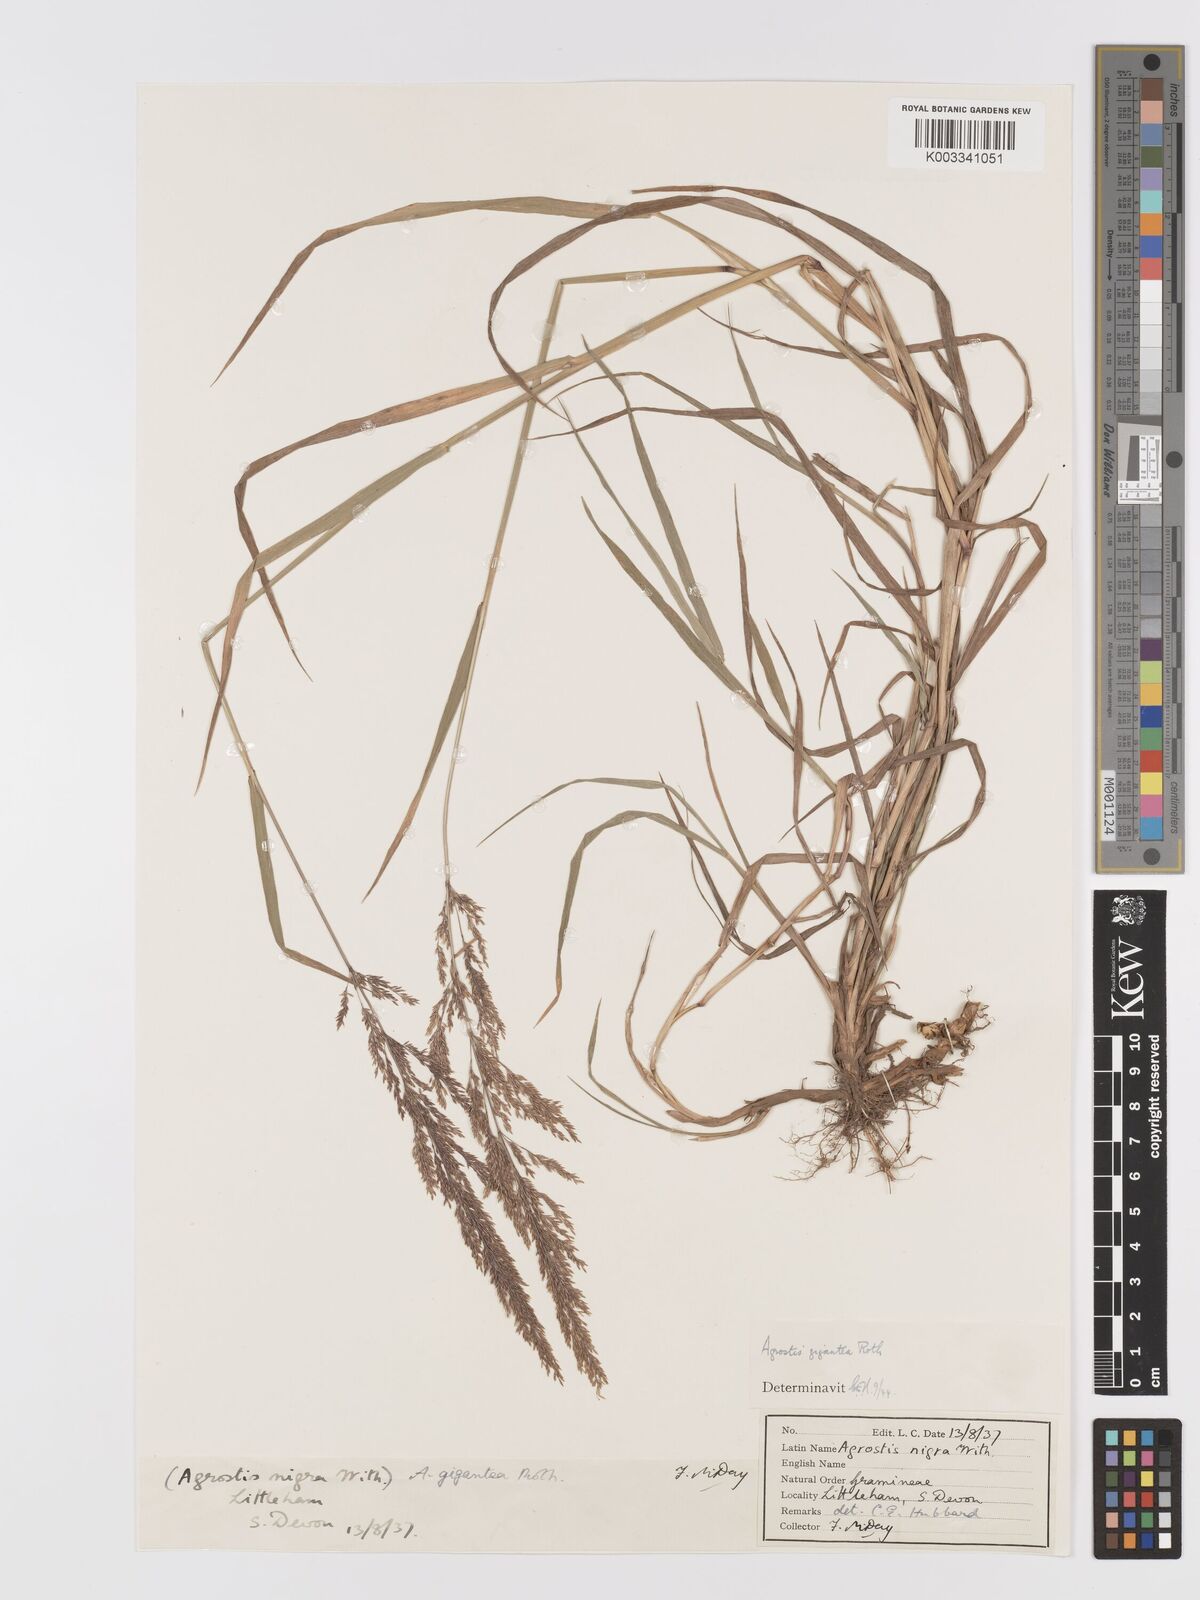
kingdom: Plantae
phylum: Tracheophyta
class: Liliopsida
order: Poales
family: Poaceae
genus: Agrostis
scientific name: Agrostis gigantea
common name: Black bent
